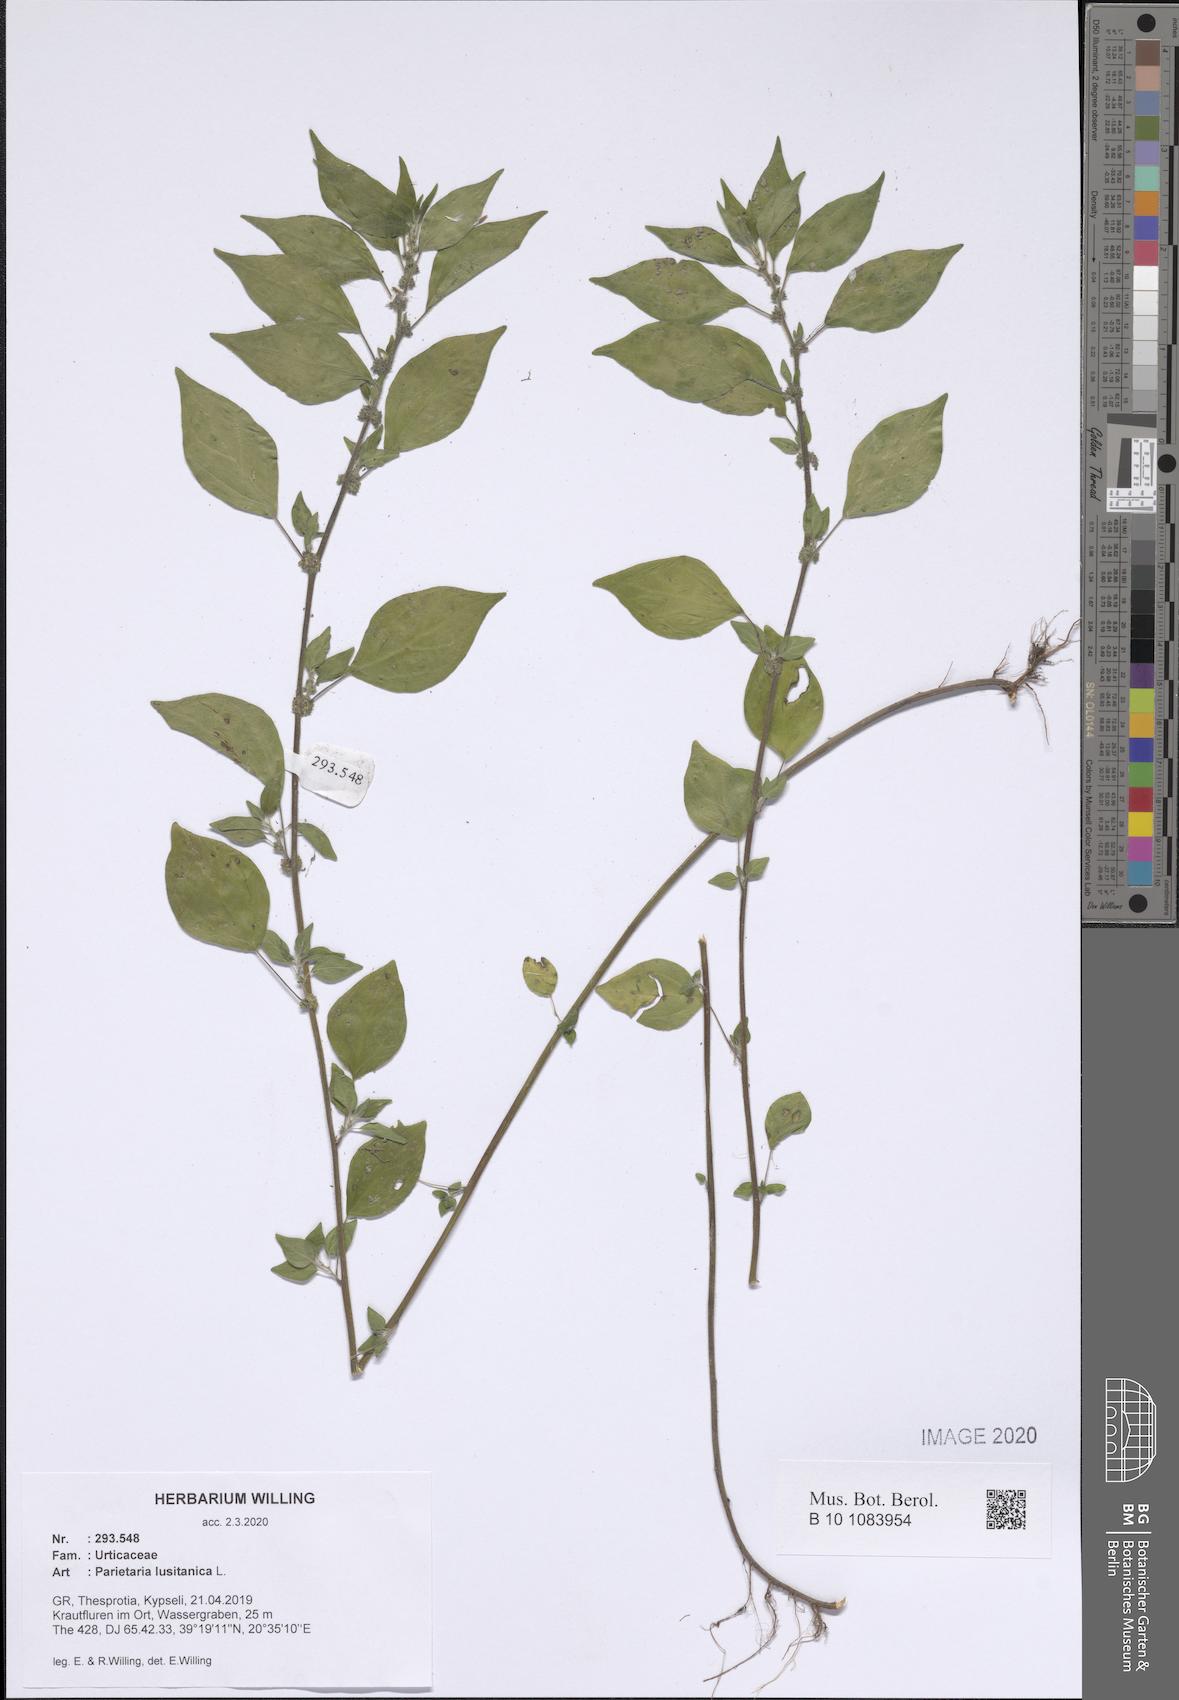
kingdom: Plantae
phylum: Tracheophyta
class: Magnoliopsida
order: Rosales
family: Urticaceae
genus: Parietaria
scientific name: Parietaria lusitanica
